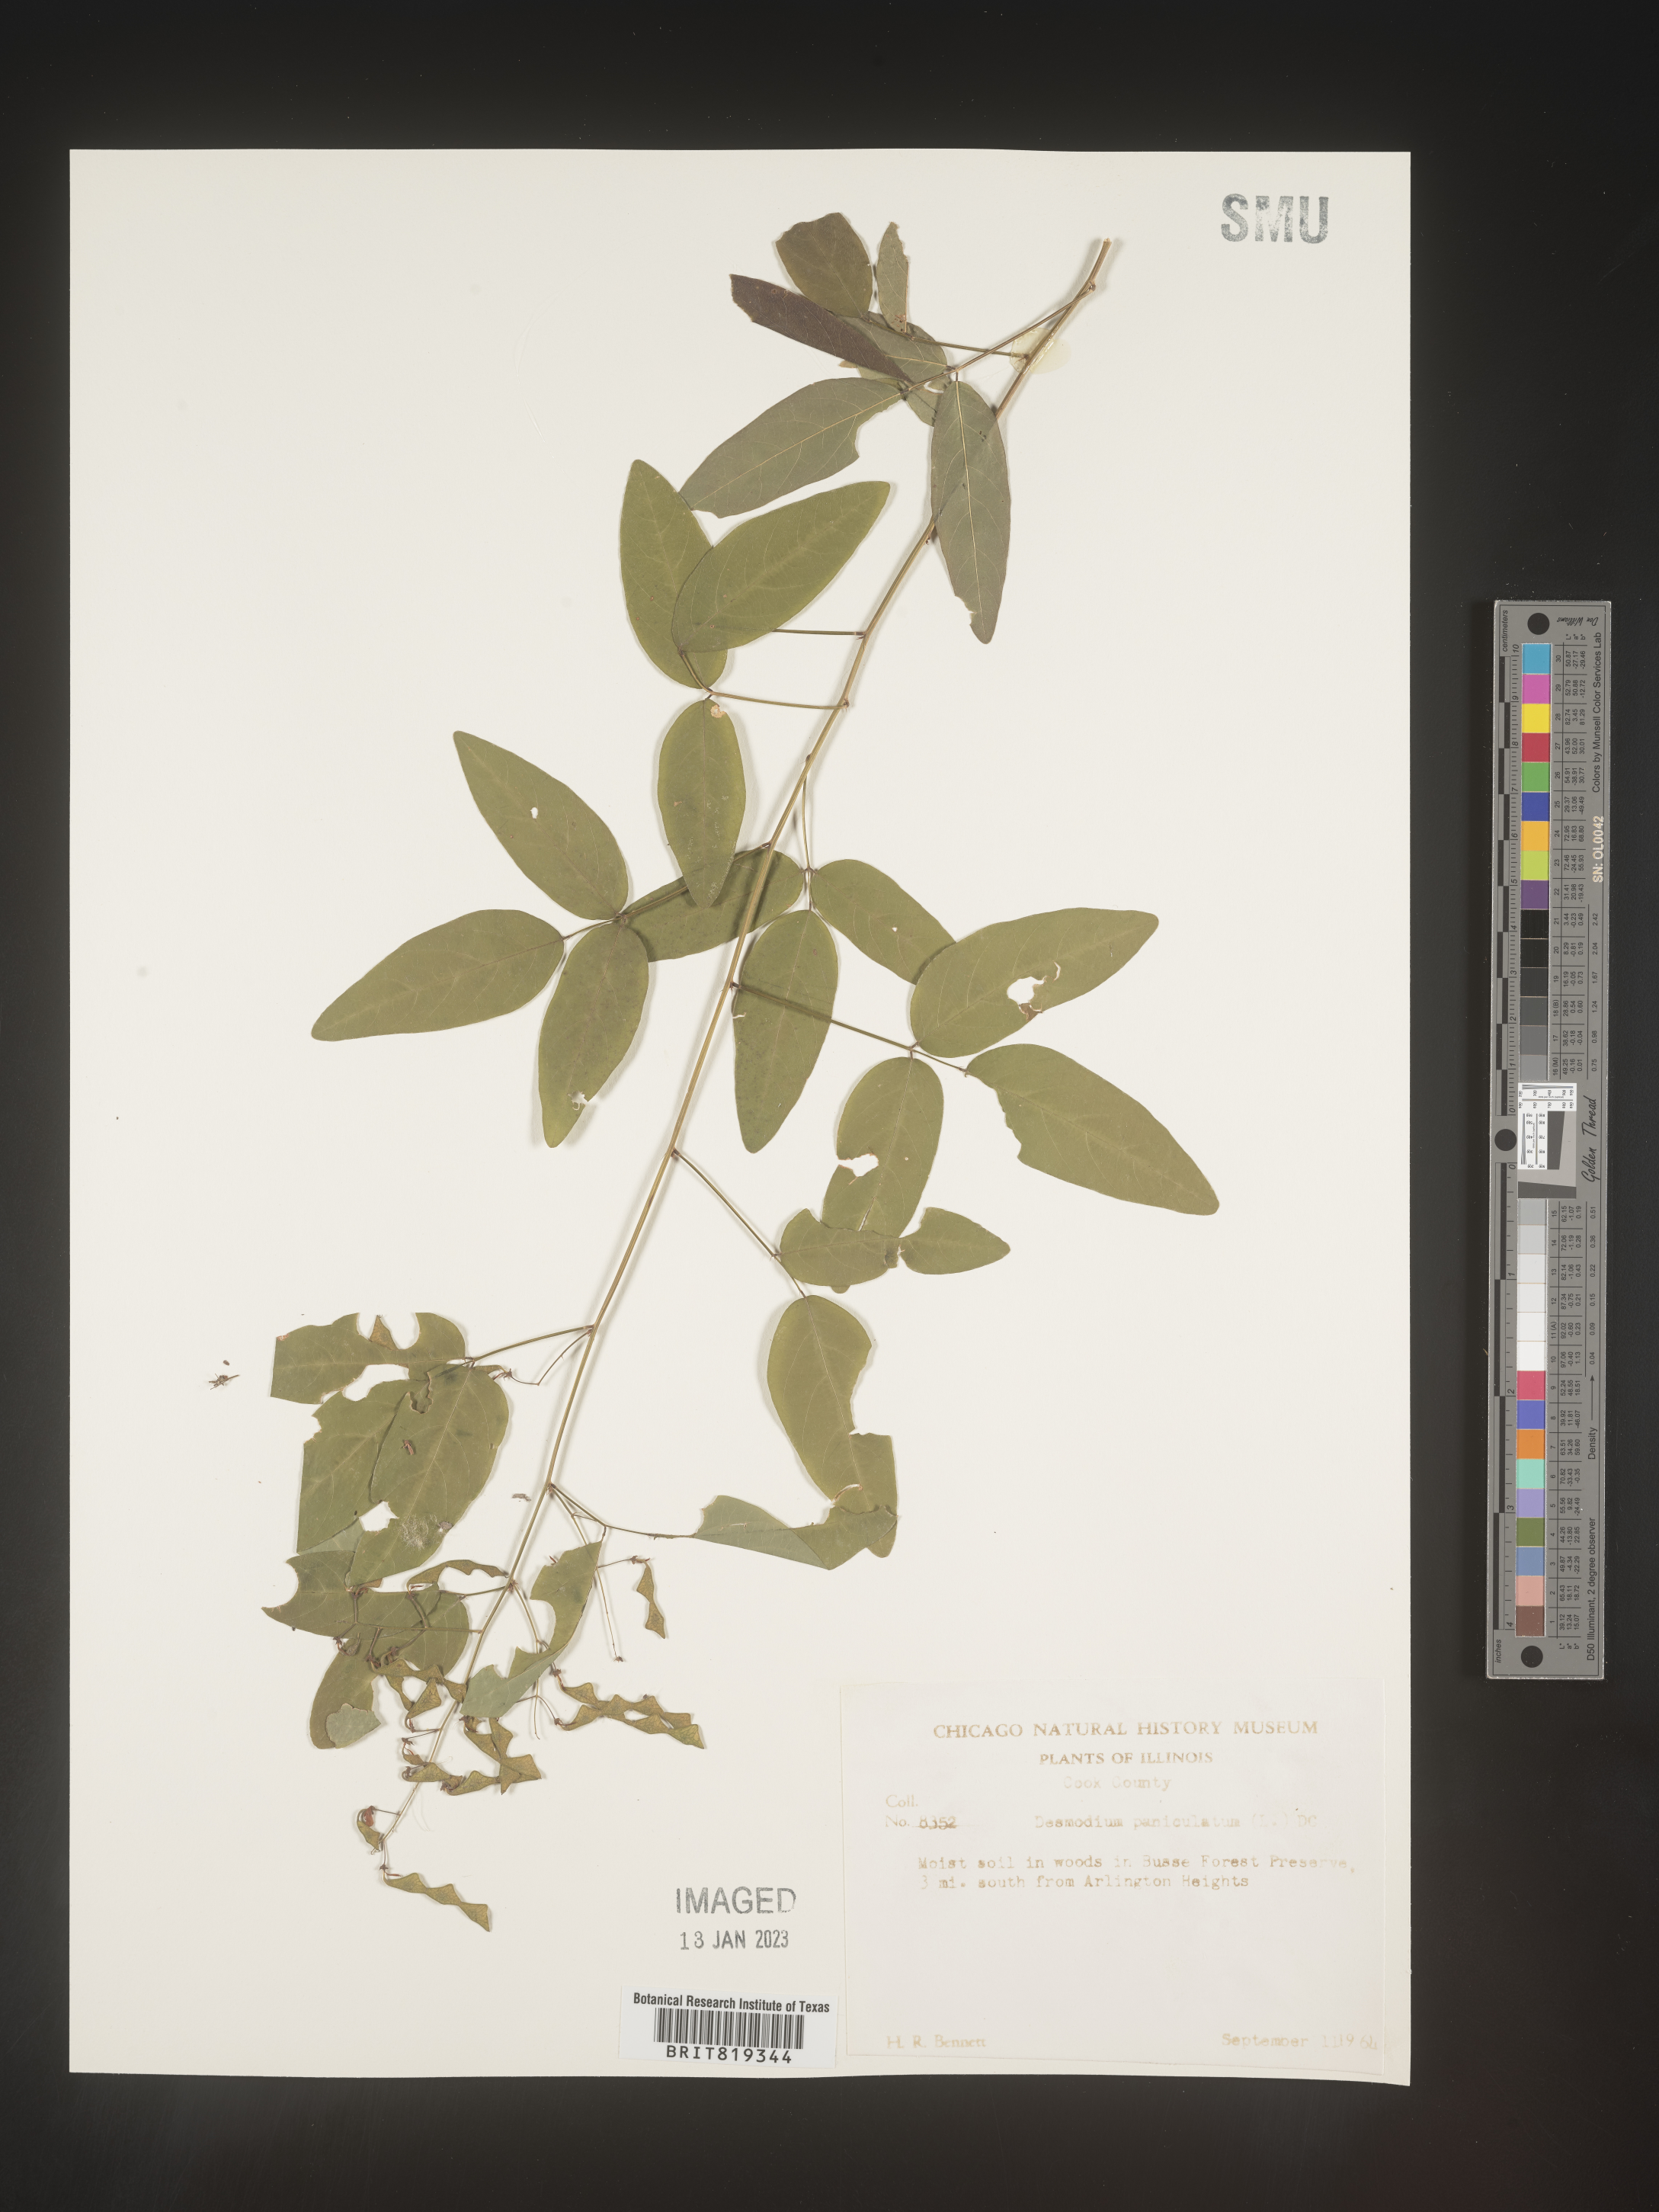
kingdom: Plantae
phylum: Tracheophyta
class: Magnoliopsida
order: Fabales
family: Fabaceae
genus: Desmodium
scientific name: Desmodium paniculatum
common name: Panicled tick-clover
